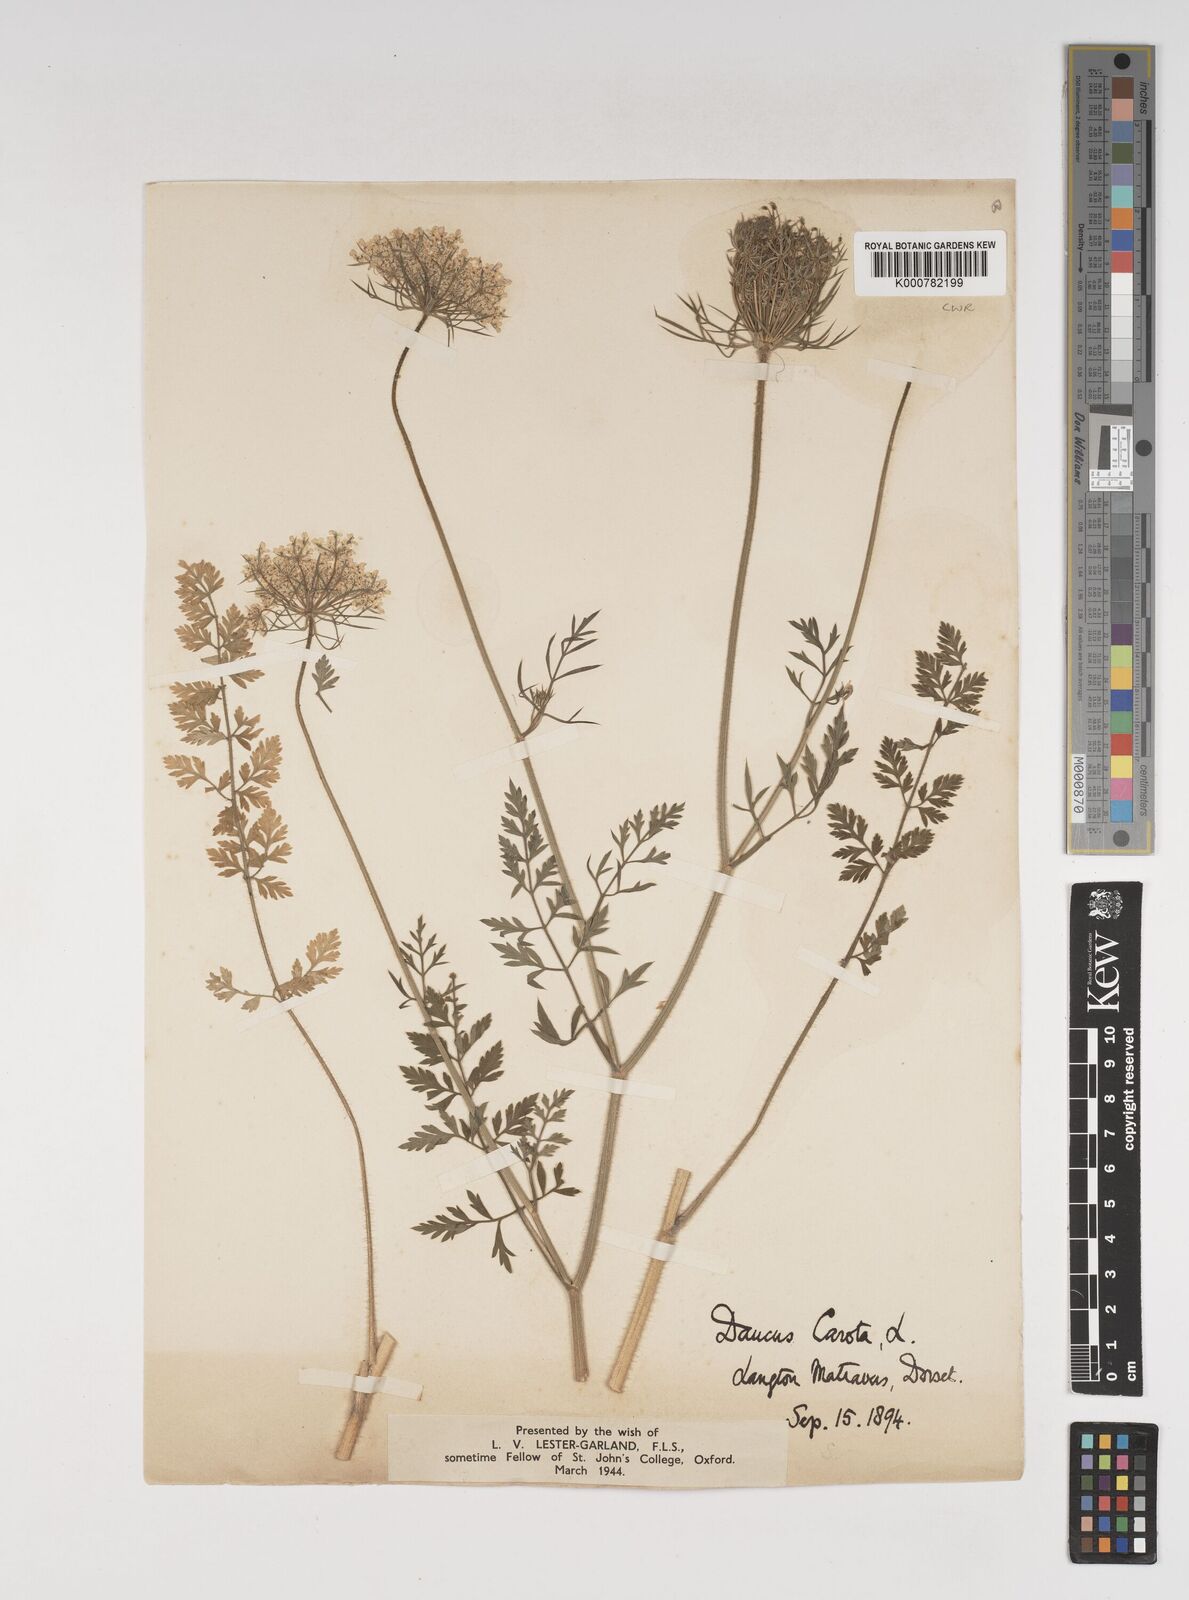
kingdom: Plantae
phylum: Tracheophyta
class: Magnoliopsida
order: Apiales
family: Apiaceae
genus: Daucus
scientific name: Daucus carota
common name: Wild carrot
